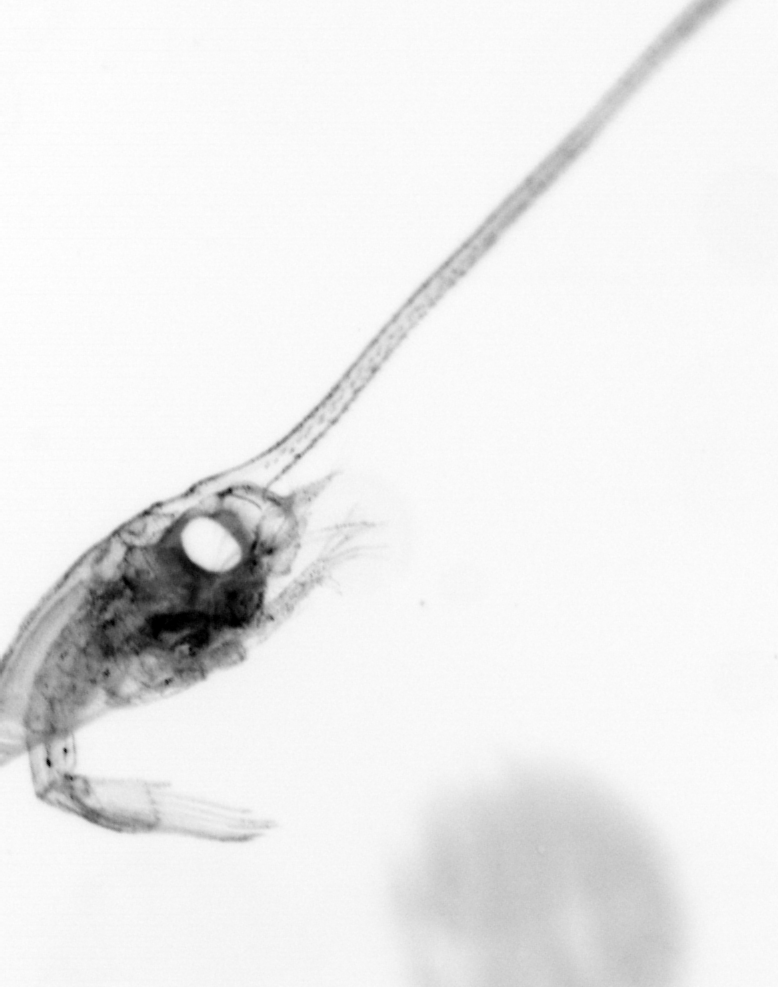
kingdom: Animalia
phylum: Arthropoda
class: Malacostraca
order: Decapoda
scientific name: Decapoda
